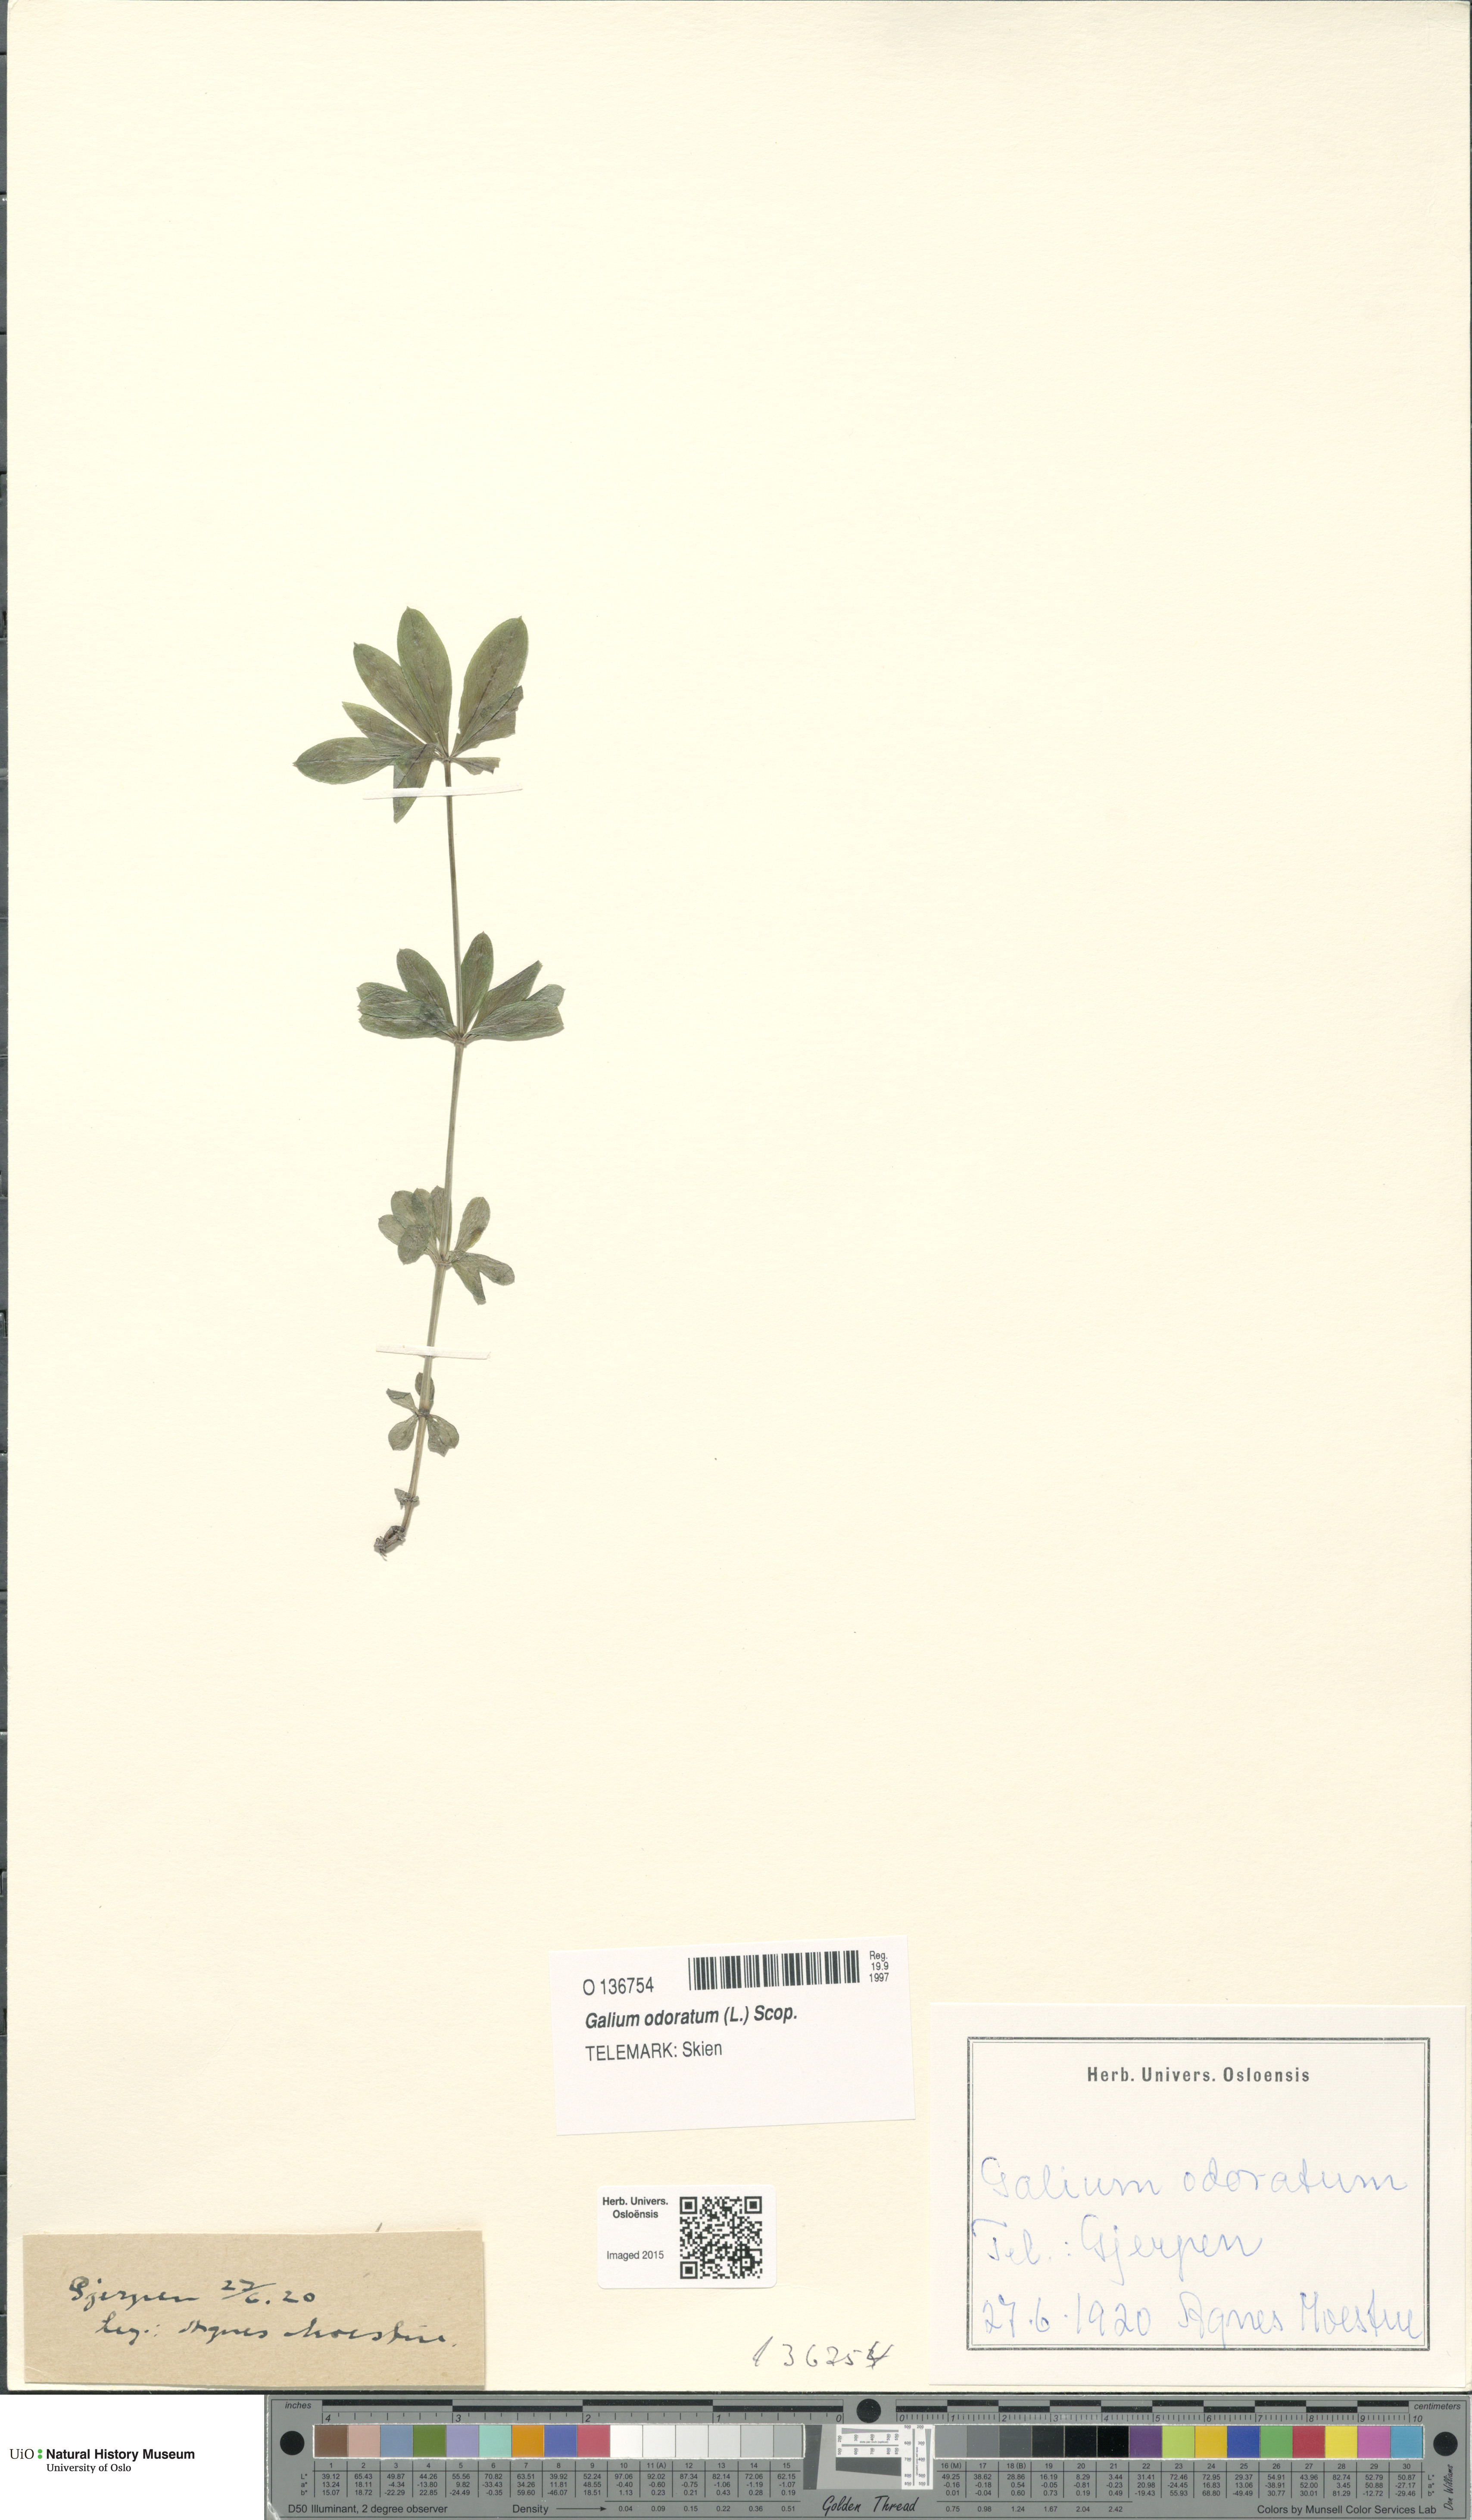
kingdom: Plantae
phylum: Tracheophyta
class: Magnoliopsida
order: Gentianales
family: Rubiaceae
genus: Galium
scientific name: Galium odoratum
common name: Sweet woodruff
